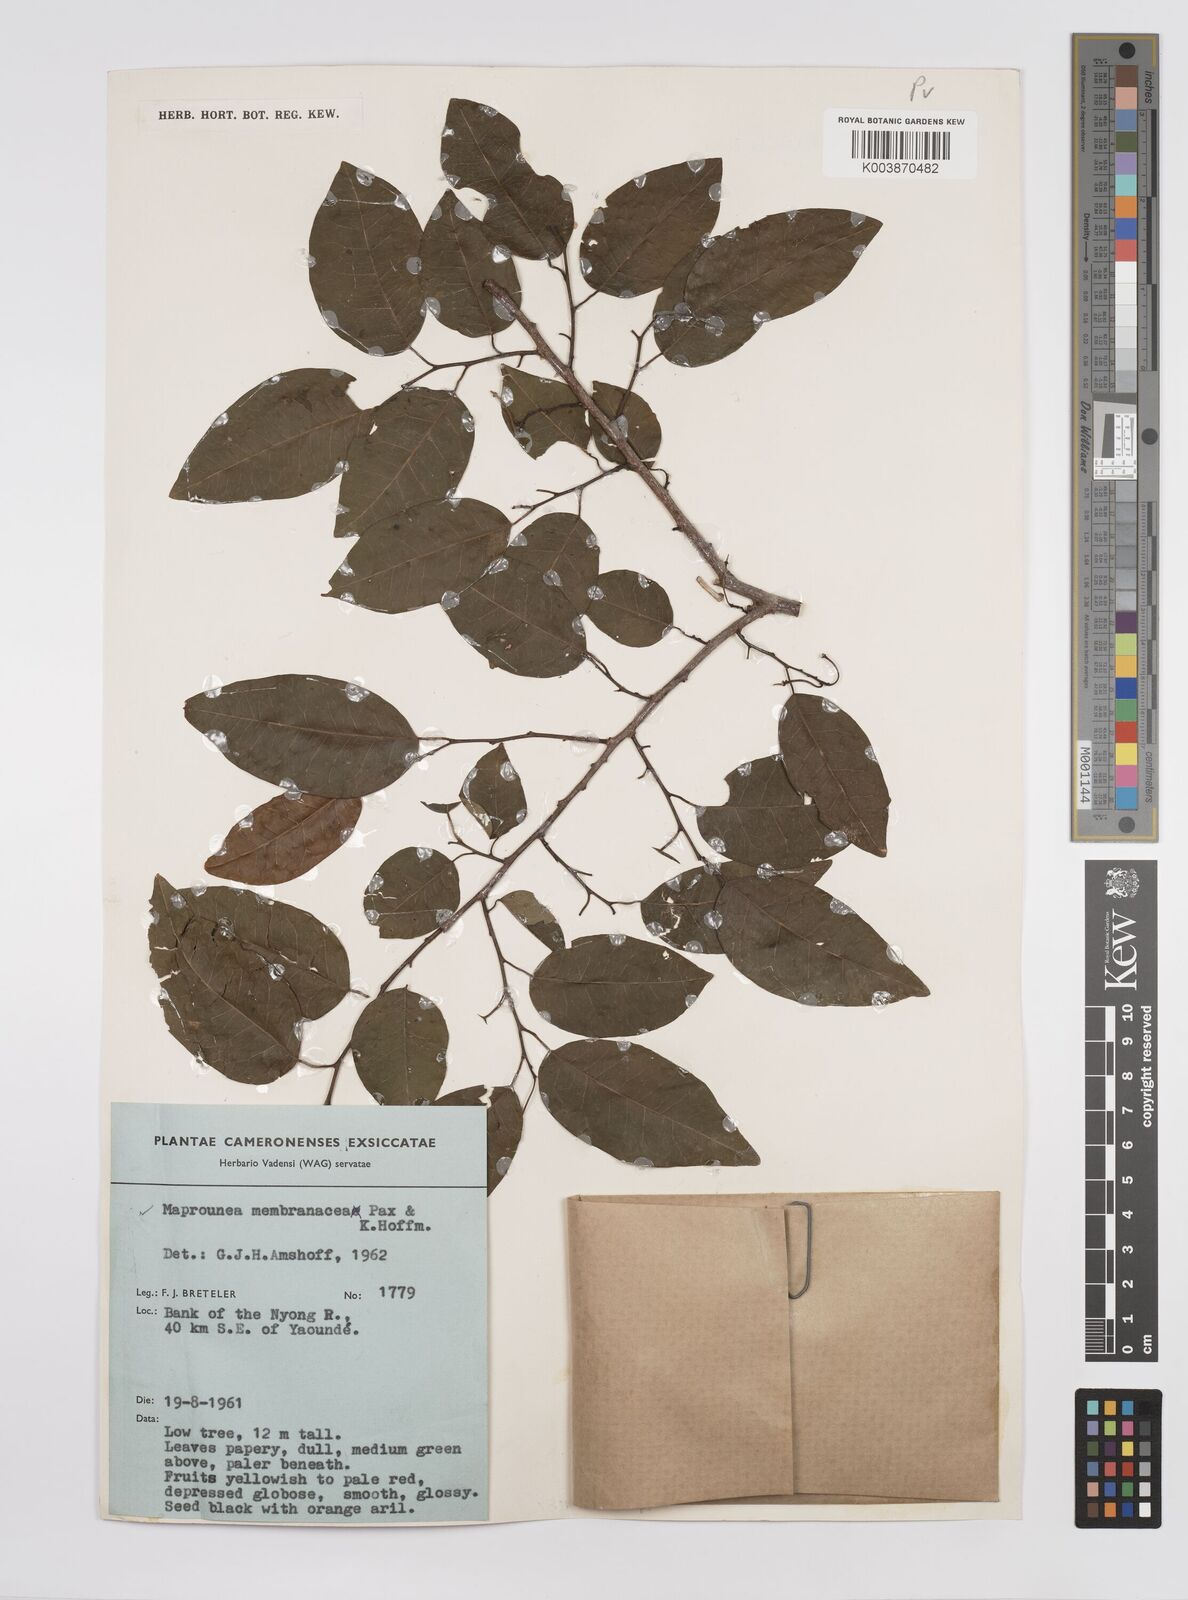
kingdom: Plantae
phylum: Tracheophyta
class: Magnoliopsida
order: Malpighiales
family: Euphorbiaceae
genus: Maprounea
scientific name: Maprounea membranacea
